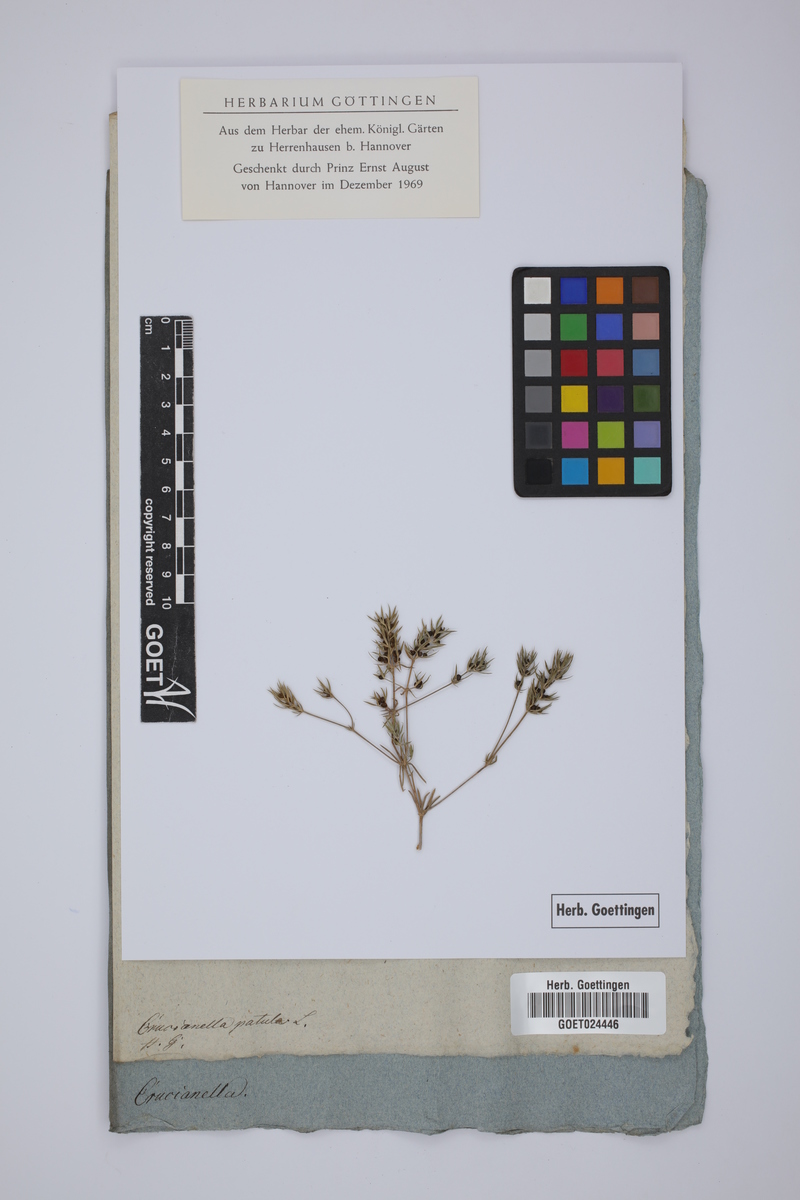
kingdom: Plantae
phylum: Tracheophyta
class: Magnoliopsida
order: Gentianales
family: Rubiaceae
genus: Crucianella
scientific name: Crucianella patula
